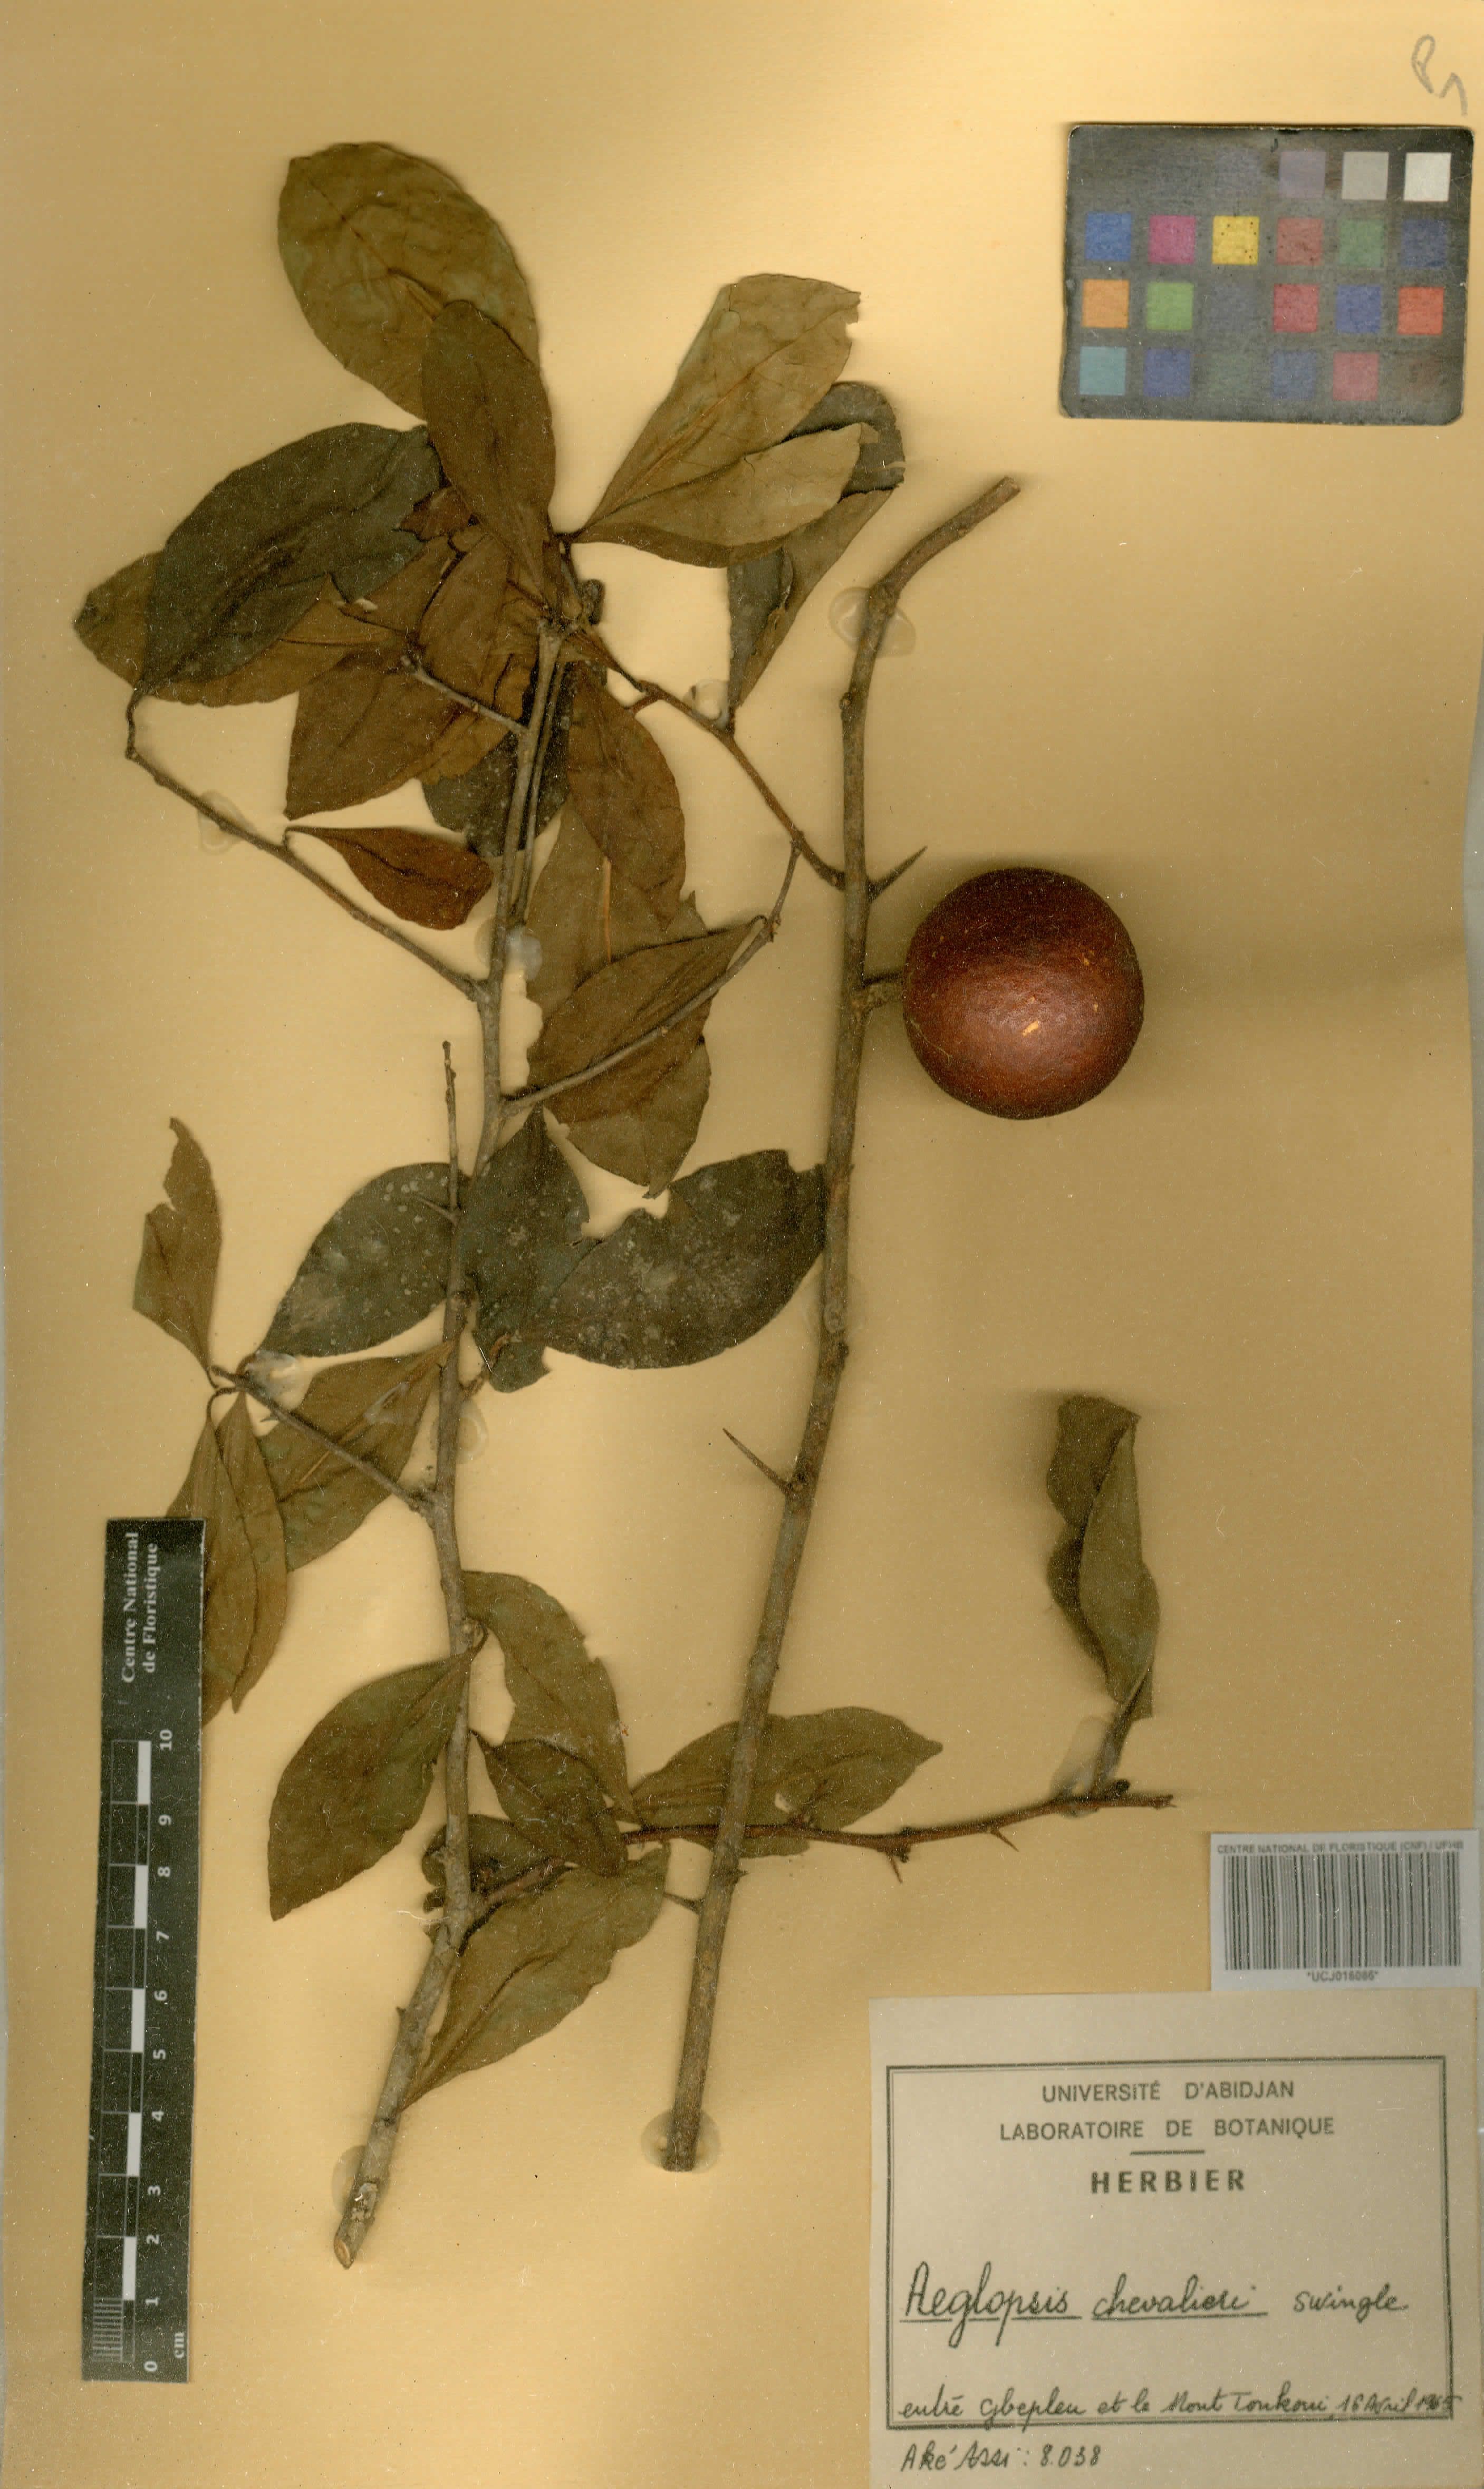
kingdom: Plantae
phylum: Tracheophyta
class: Magnoliopsida
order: Sapindales
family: Rutaceae
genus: Aeglopsis
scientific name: Aeglopsis chevalieri
